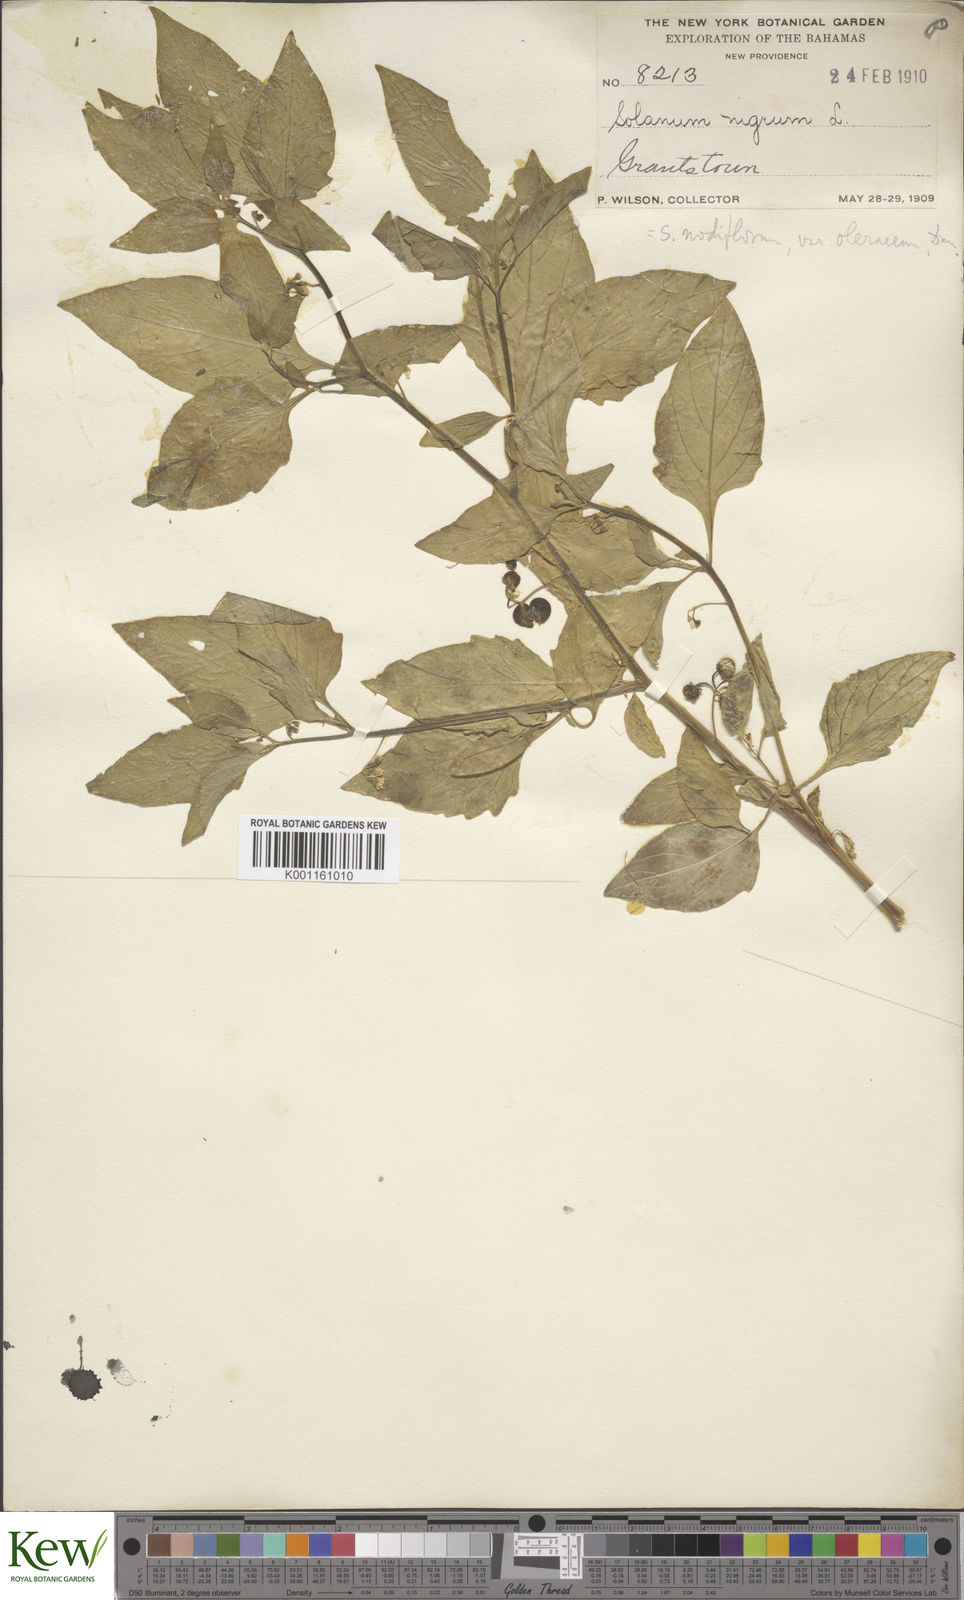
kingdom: Plantae
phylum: Tracheophyta
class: Magnoliopsida
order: Solanales
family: Solanaceae
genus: Solanum
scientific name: Solanum americanum
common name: American black nightshade
